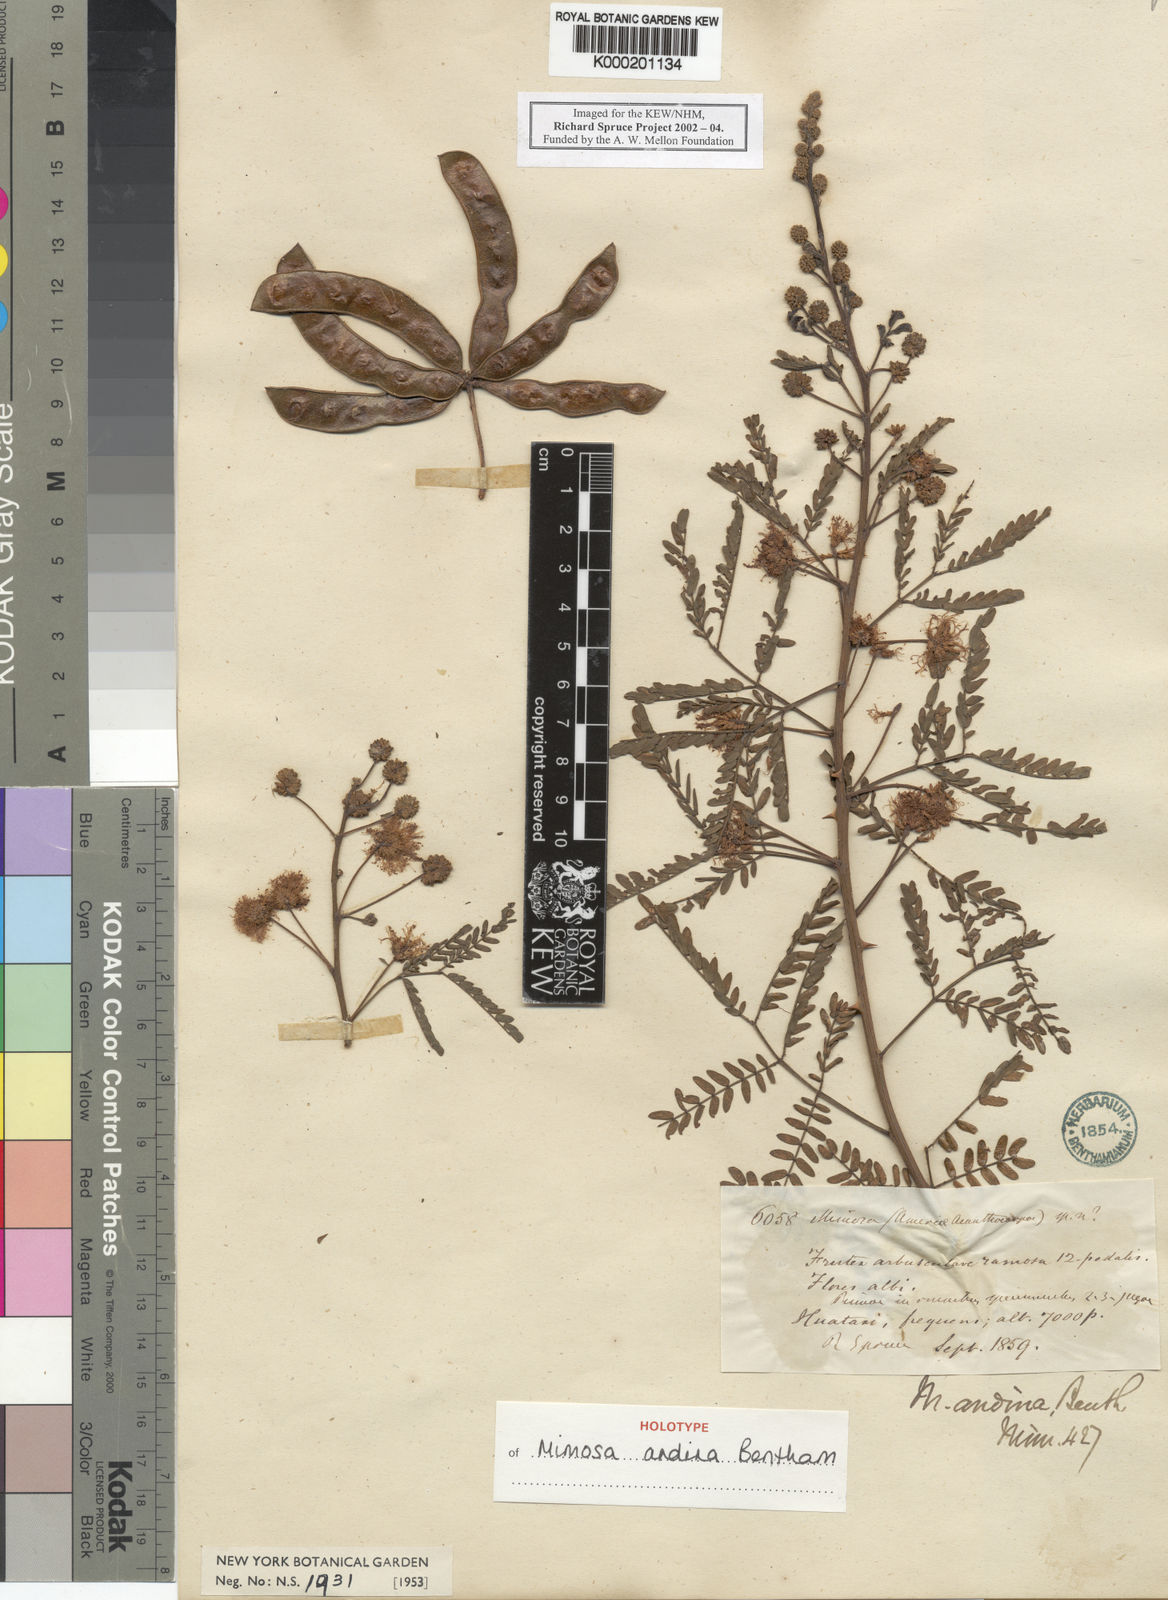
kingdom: Plantae
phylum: Tracheophyta
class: Magnoliopsida
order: Fabales
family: Fabaceae
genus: Mimosa
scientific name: Mimosa andina
